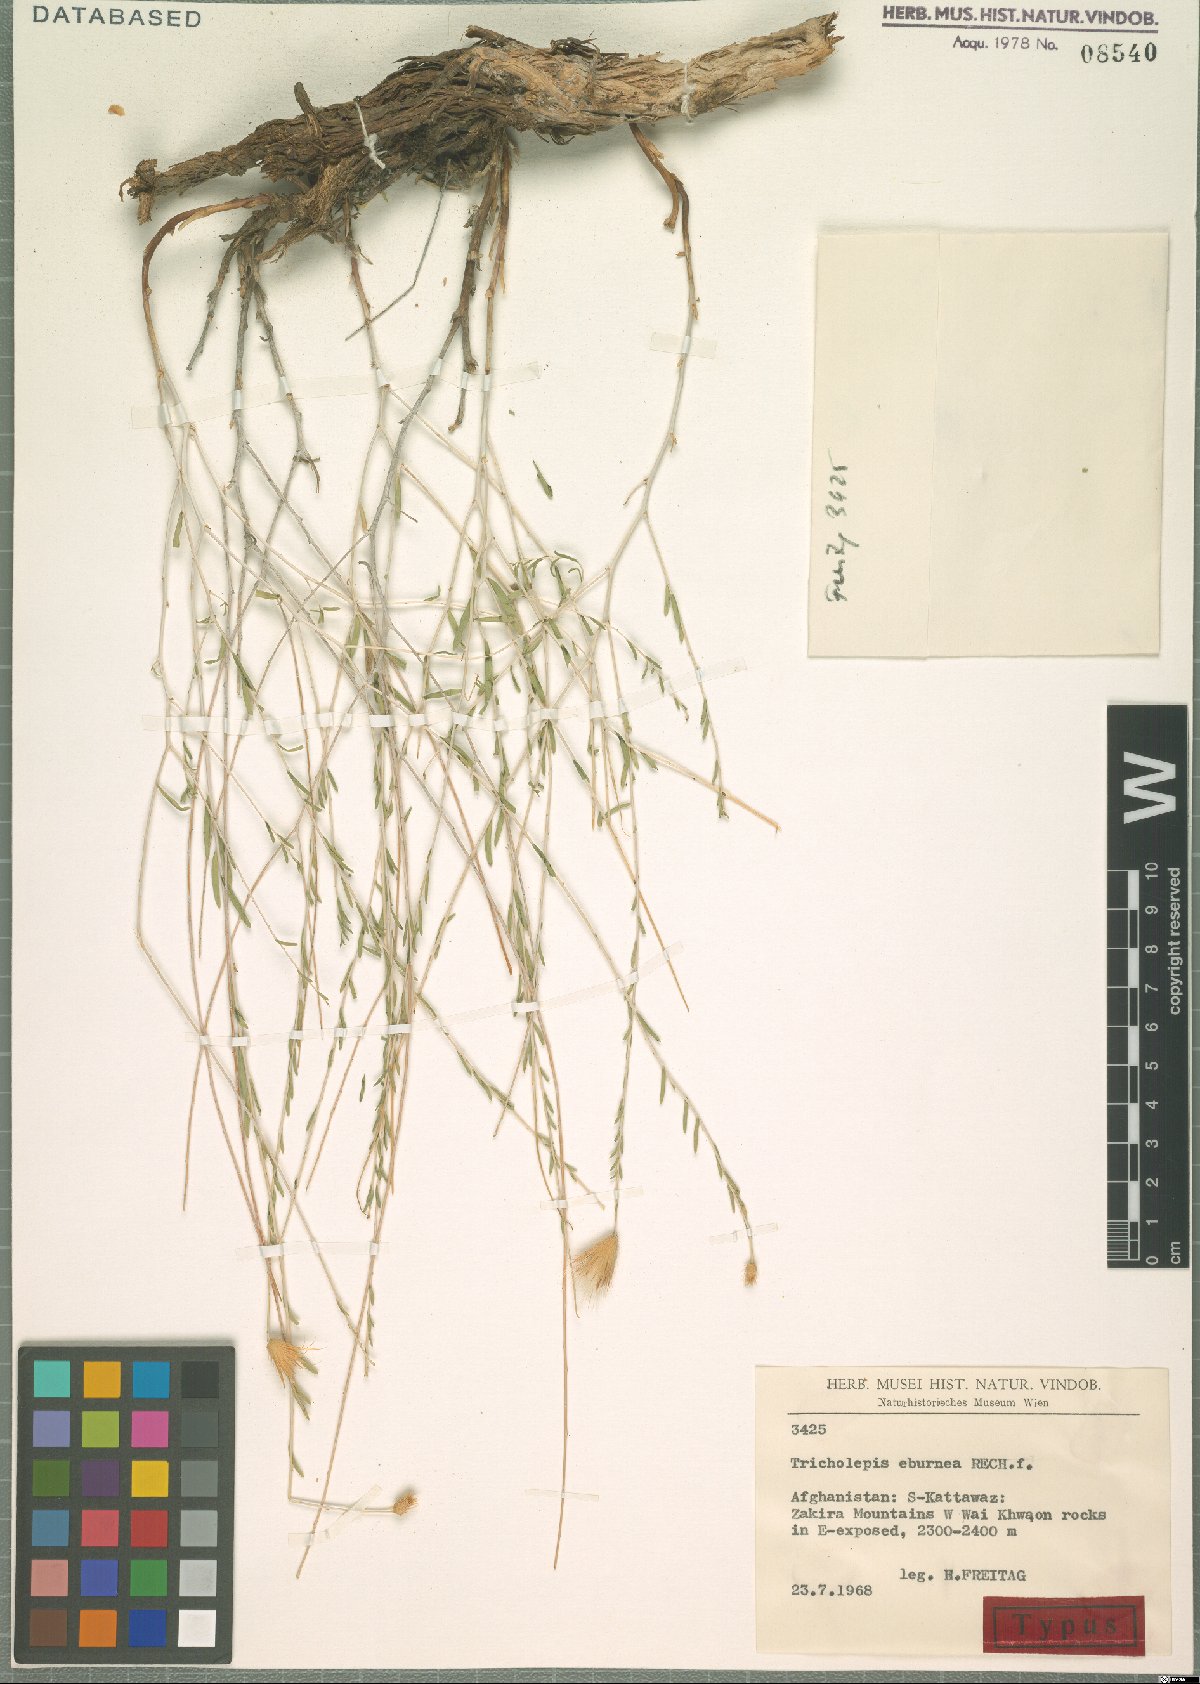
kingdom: Plantae
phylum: Tracheophyta
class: Magnoliopsida
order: Asterales
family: Asteraceae
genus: Tricholepis
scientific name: Tricholepis eburnea
